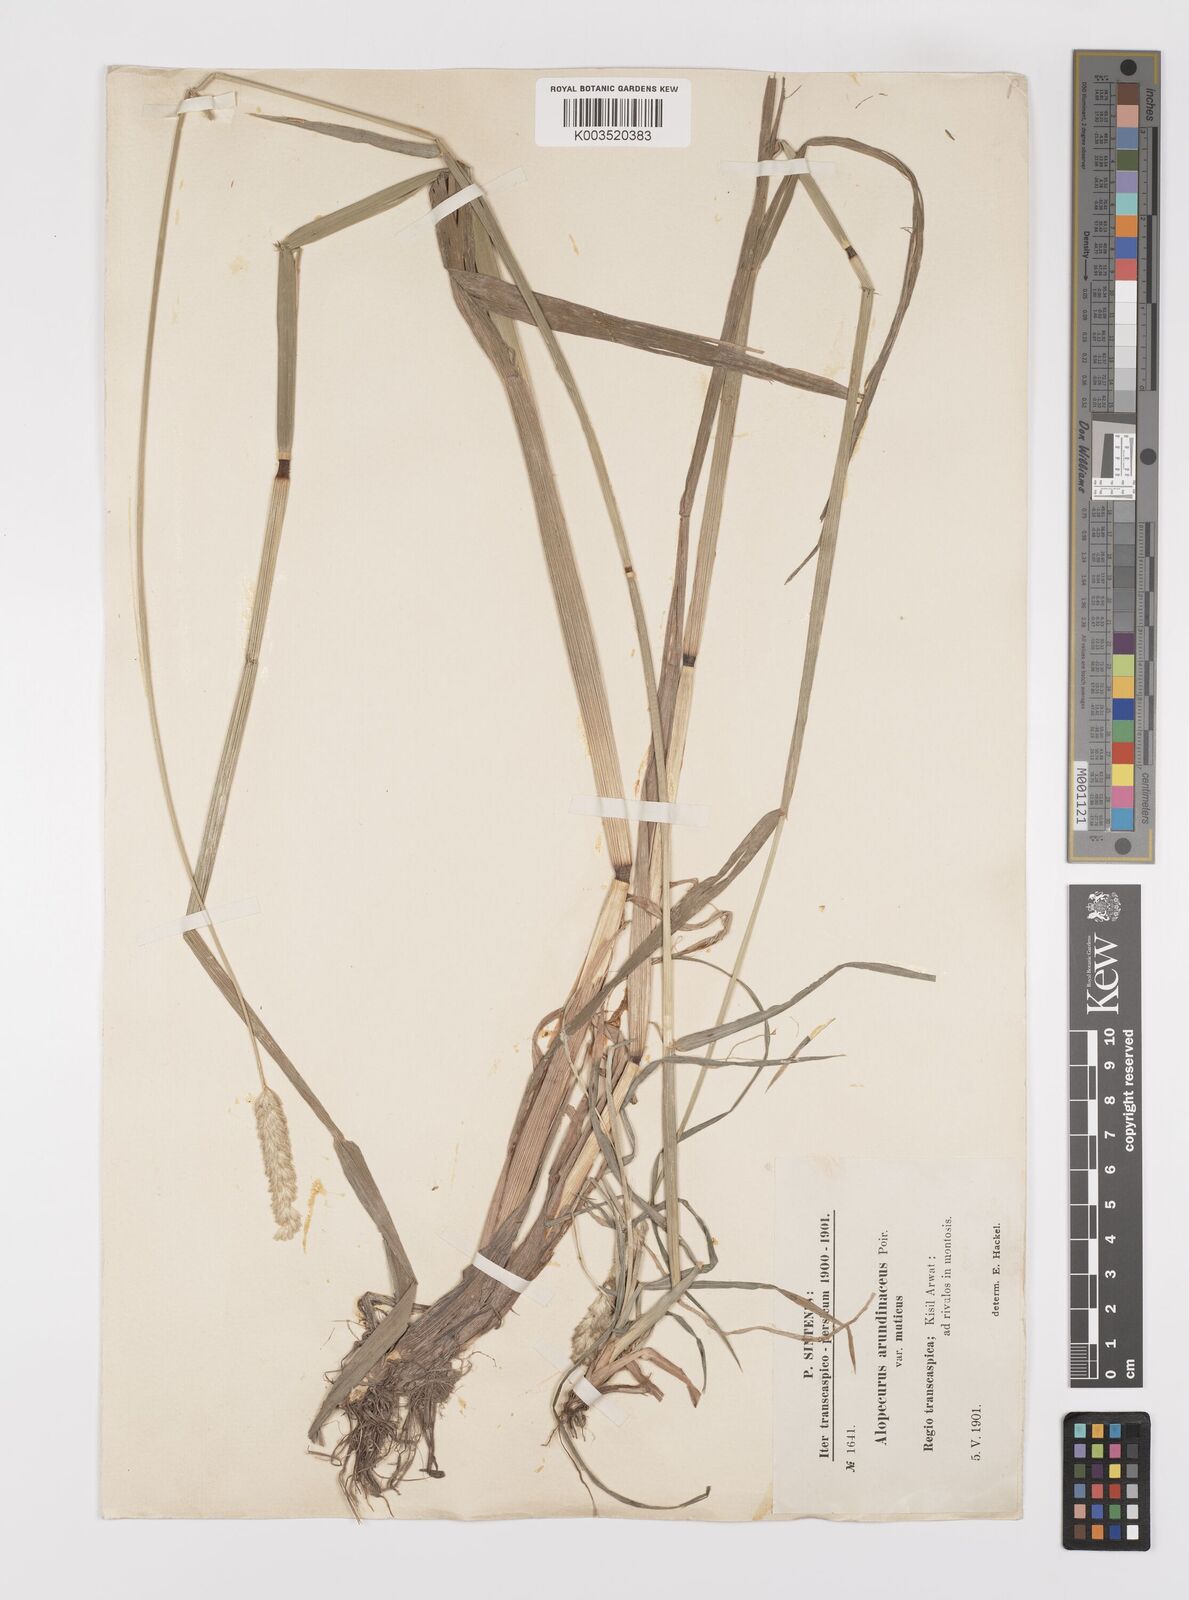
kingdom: Plantae
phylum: Tracheophyta
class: Liliopsida
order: Poales
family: Poaceae
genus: Alopecurus
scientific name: Alopecurus arundinaceus
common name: Creeping meadow foxtail
